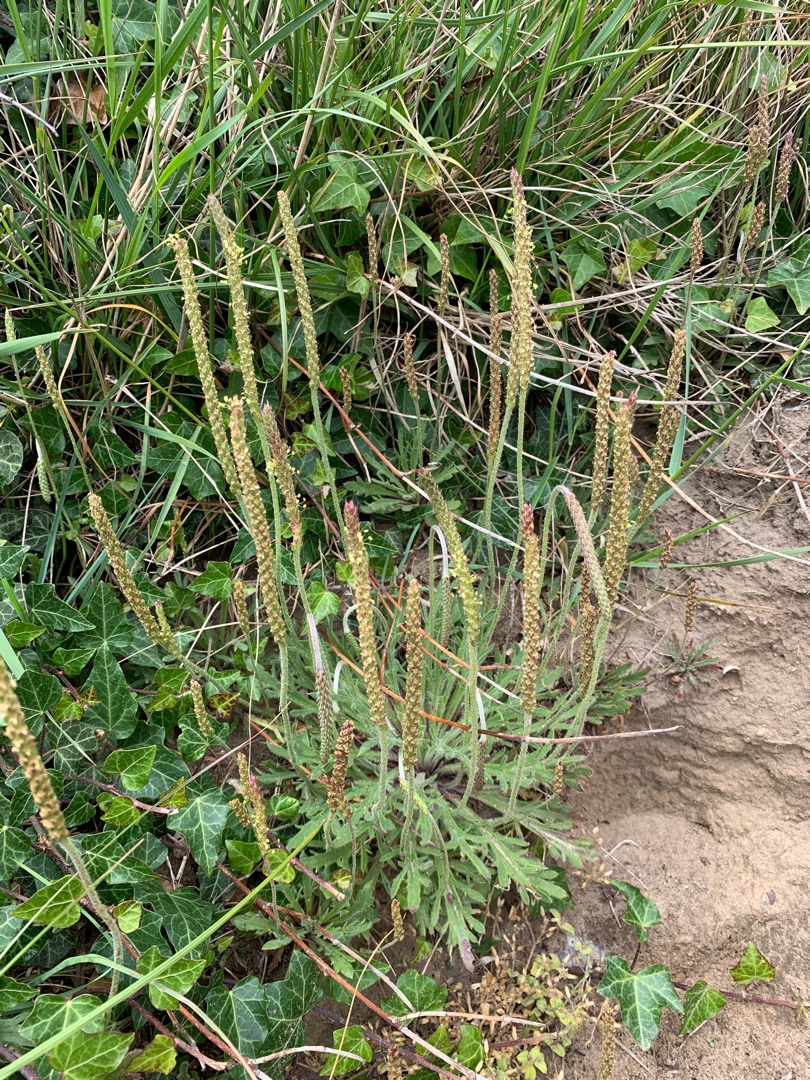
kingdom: Plantae
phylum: Tracheophyta
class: Magnoliopsida
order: Lamiales
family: Plantaginaceae
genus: Plantago
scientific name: Plantago coronopus
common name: Fliget vejbred
